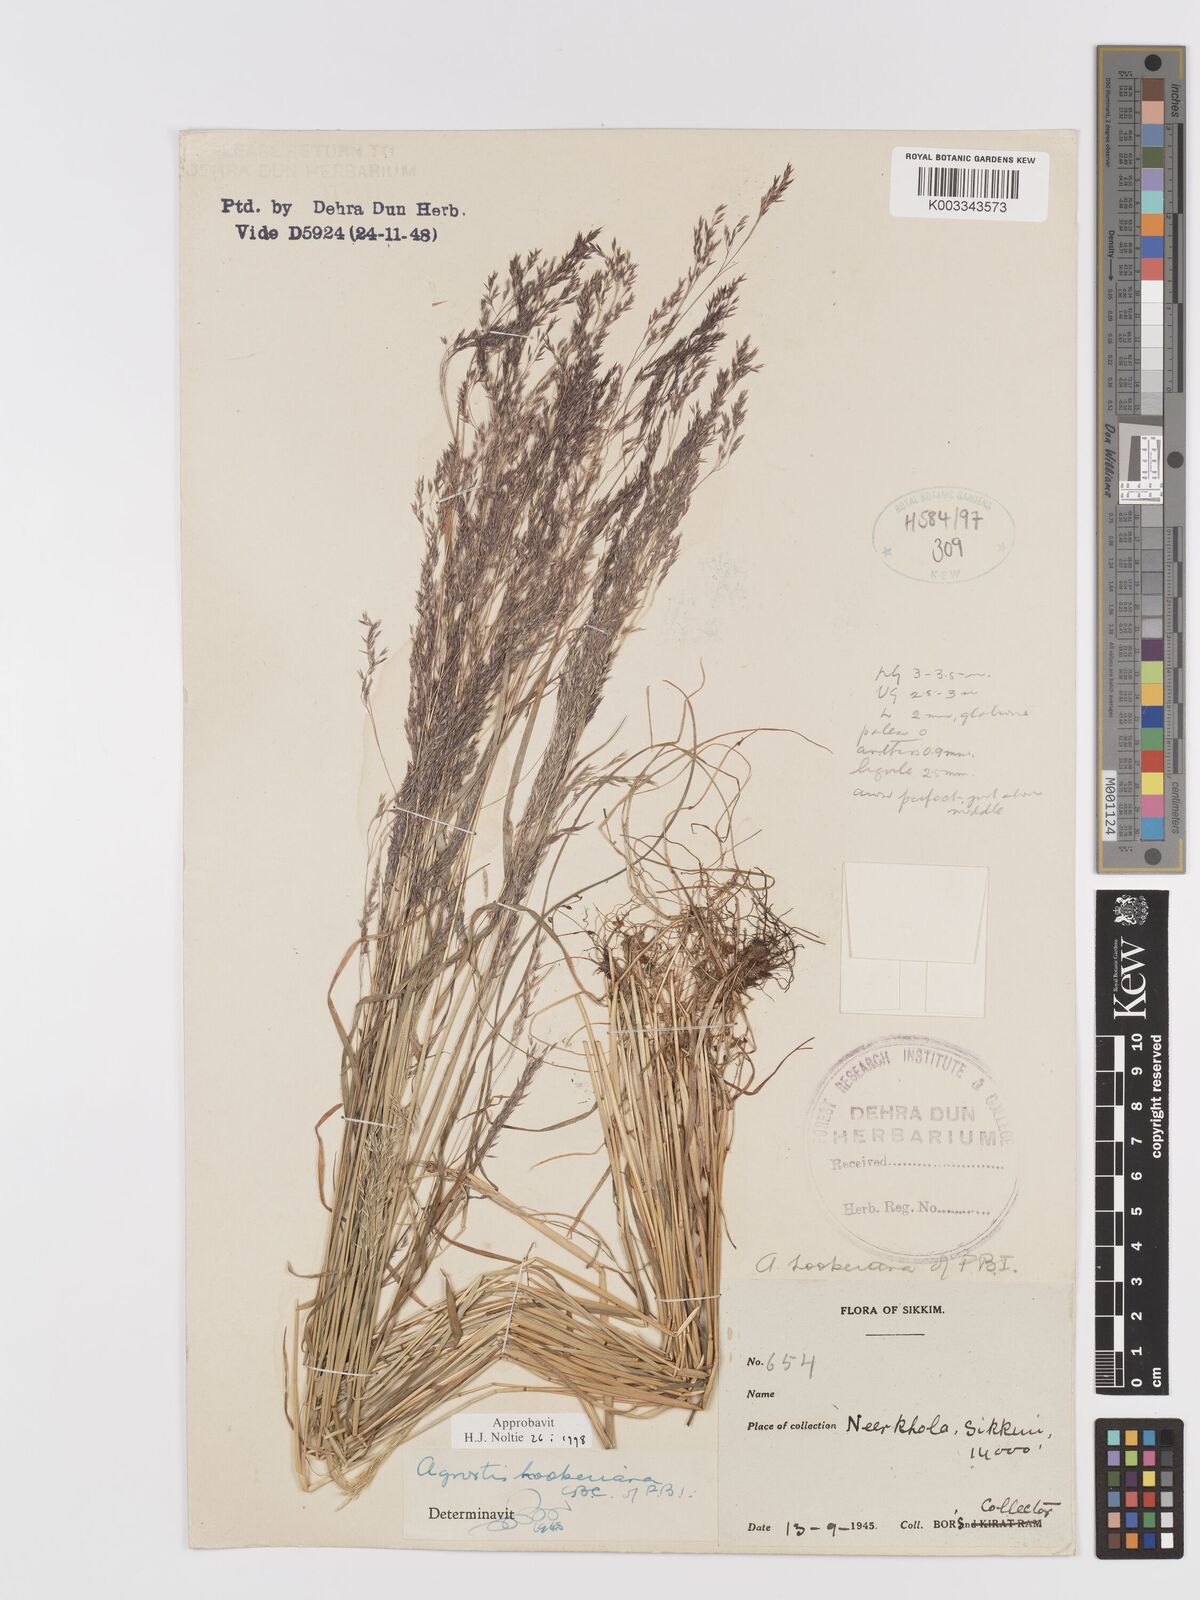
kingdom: Plantae
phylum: Tracheophyta
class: Liliopsida
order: Poales
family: Poaceae
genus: Agrostis
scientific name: Agrostis hookeriana
